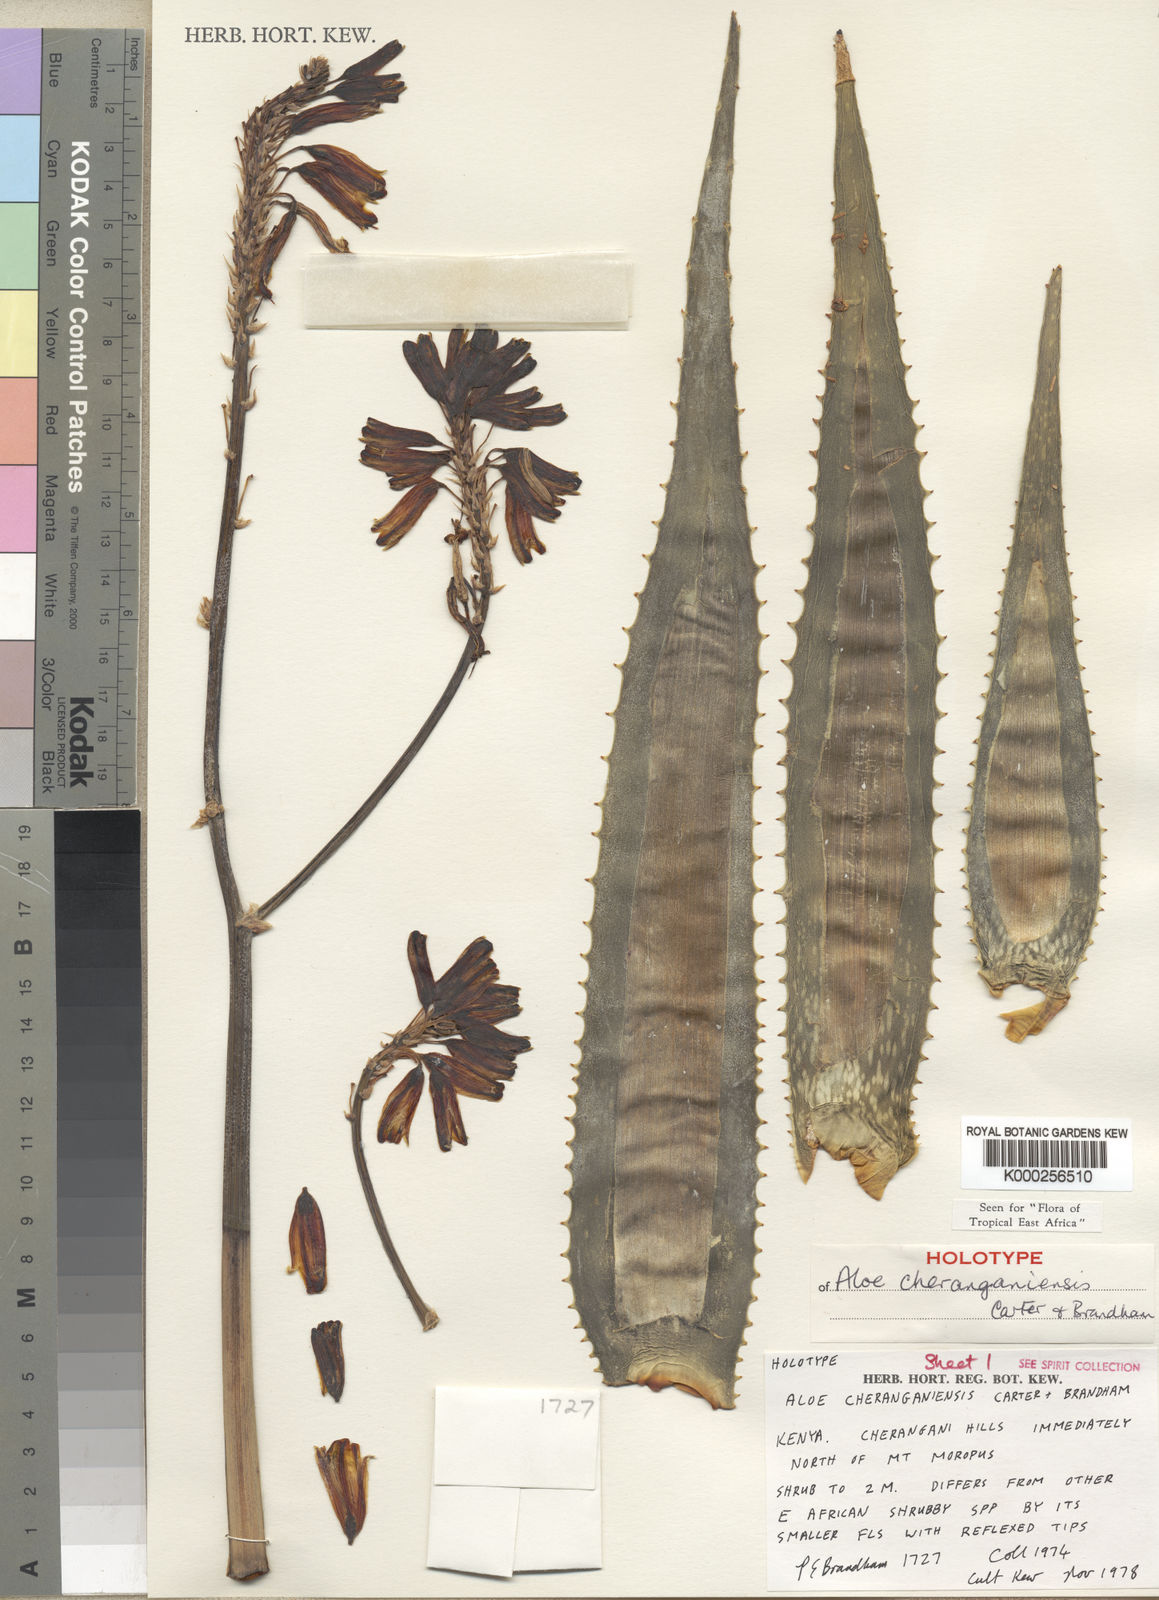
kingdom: Plantae
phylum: Tracheophyta
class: Liliopsida
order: Asparagales
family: Asphodelaceae
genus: Aloe
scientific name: Aloe cheranganiensis
